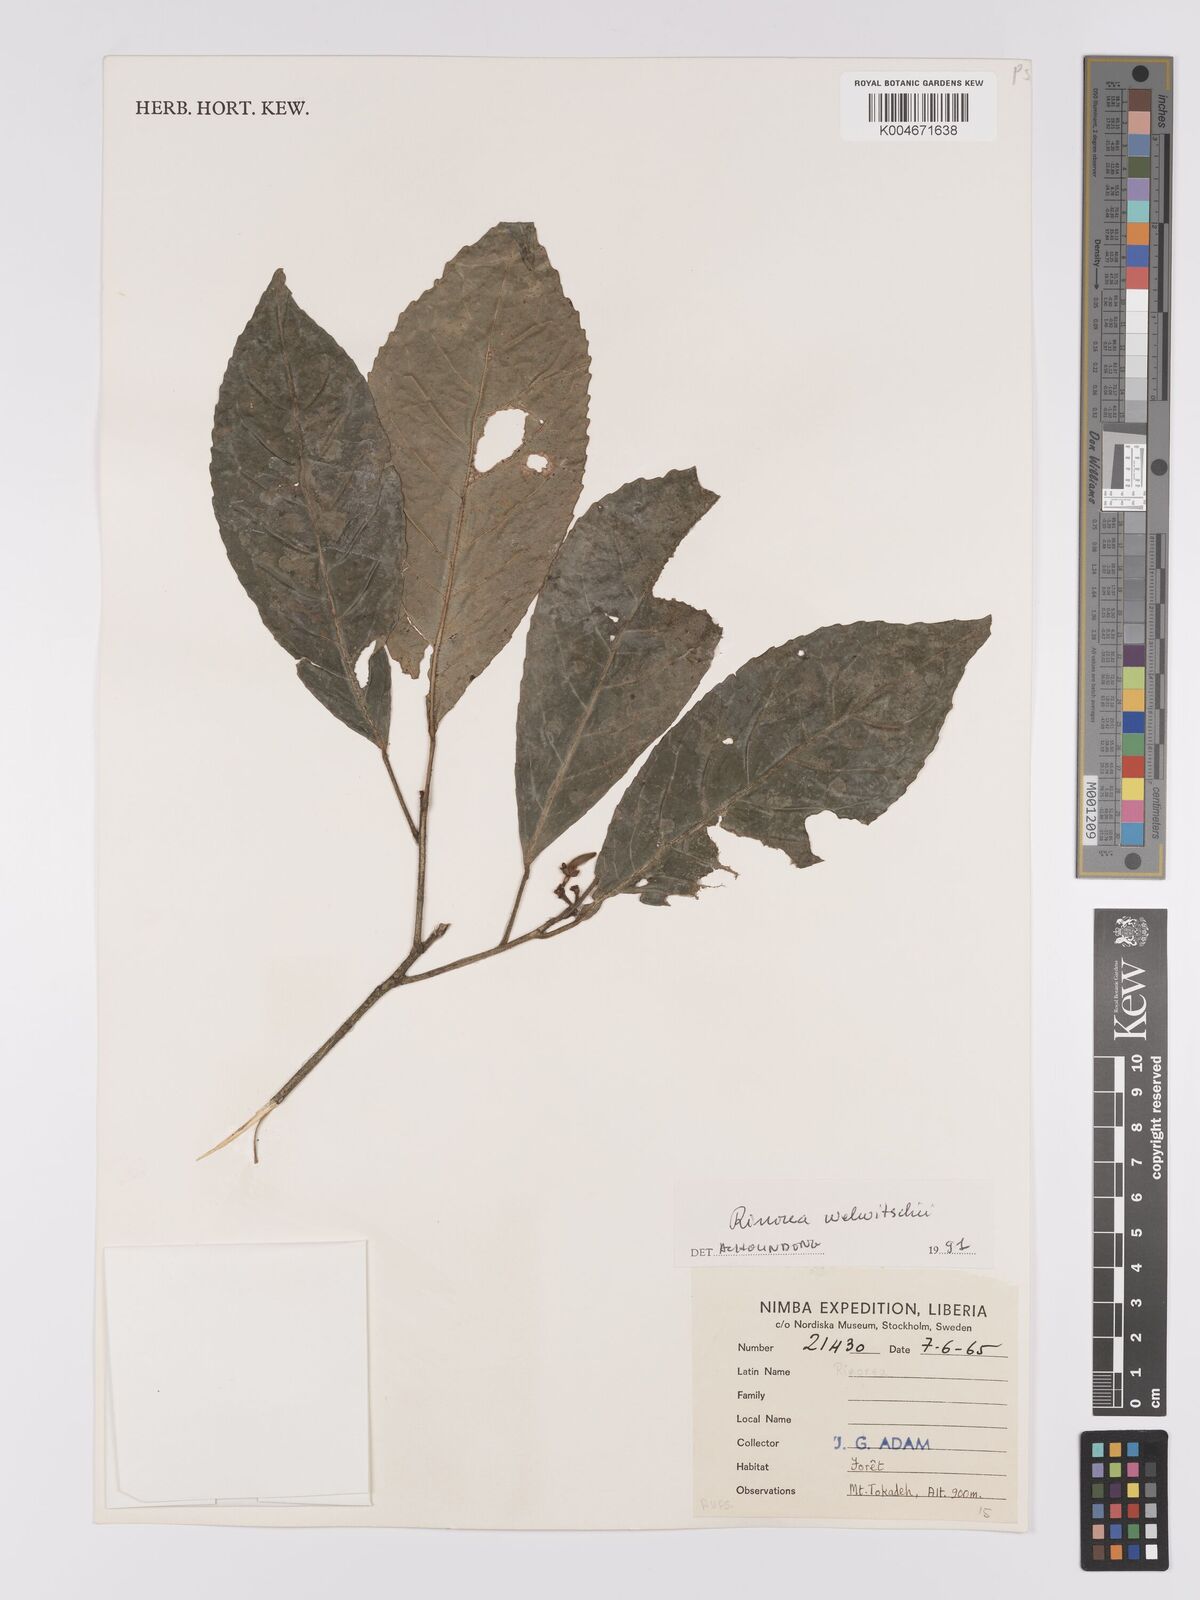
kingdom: Plantae
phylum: Tracheophyta
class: Magnoliopsida
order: Malpighiales
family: Violaceae
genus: Rinorea
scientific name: Rinorea welwitschii
